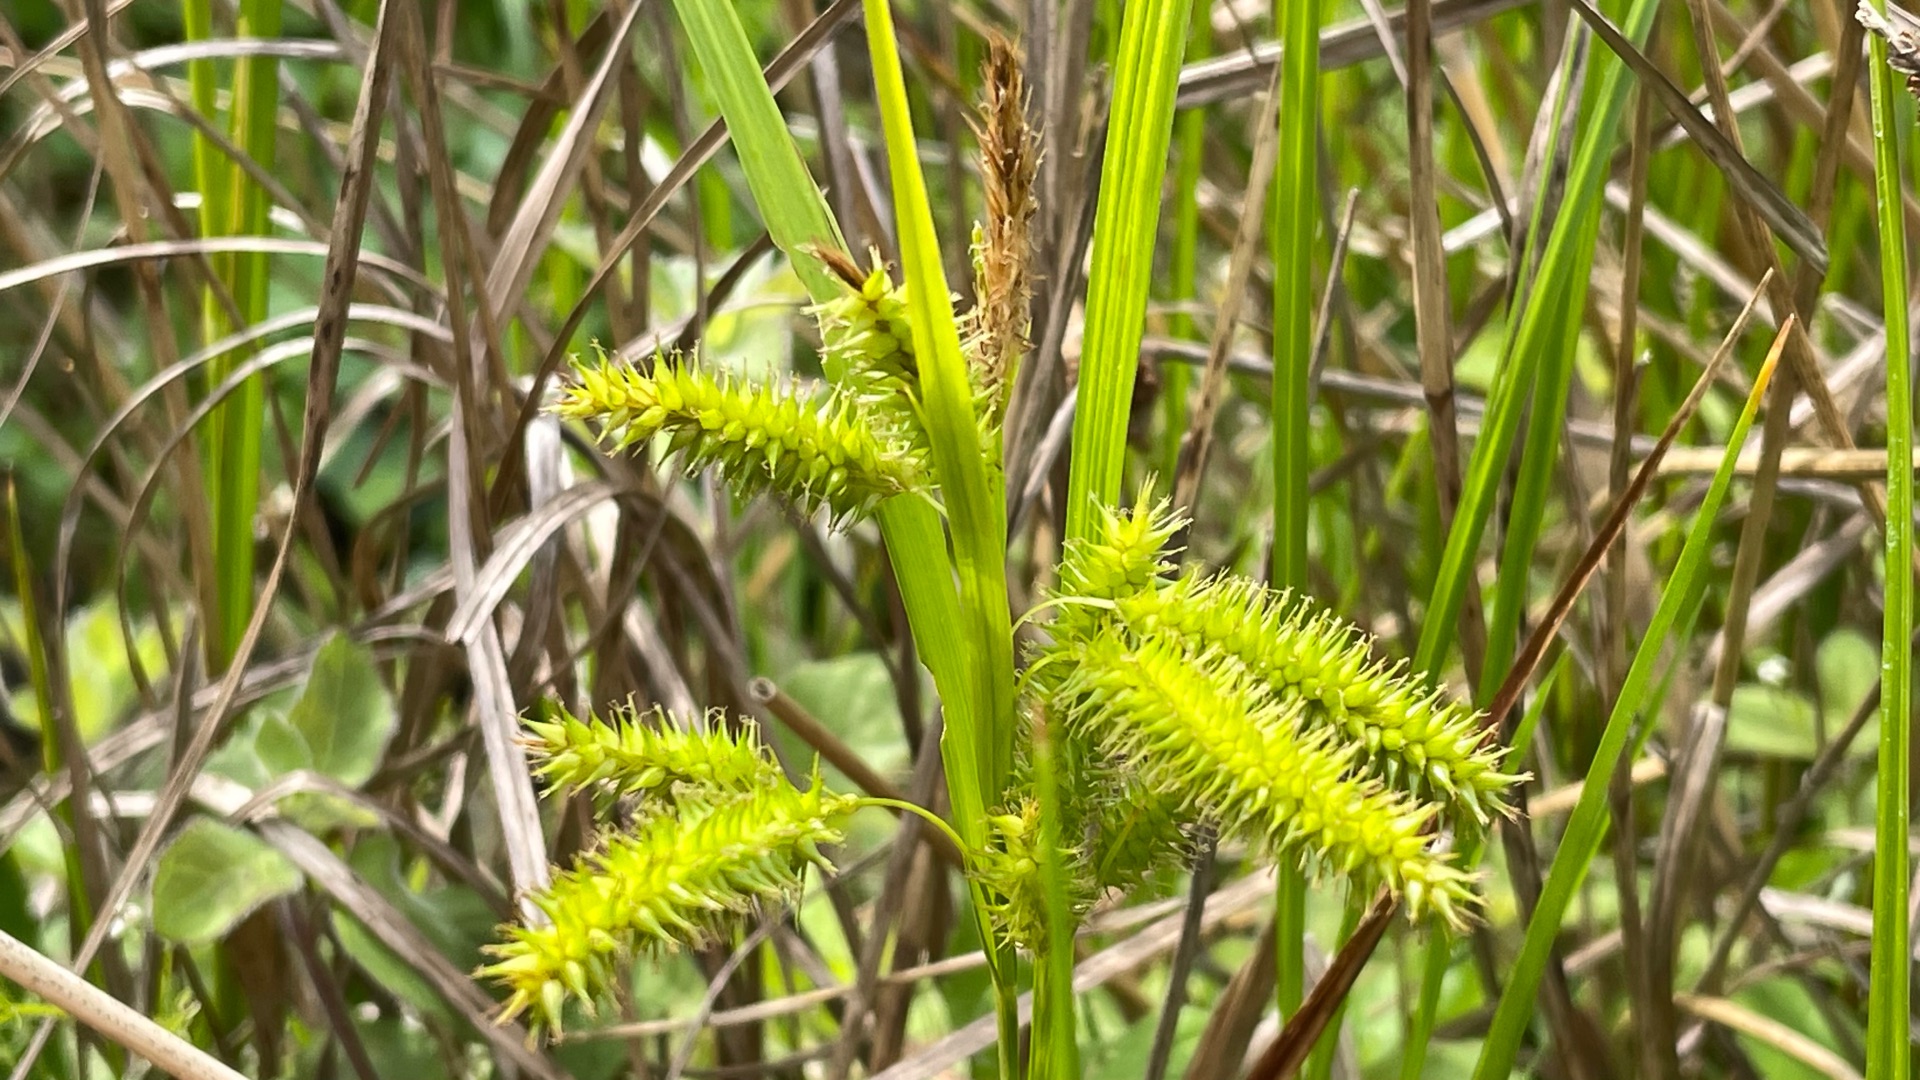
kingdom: Plantae
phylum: Tracheophyta
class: Liliopsida
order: Poales
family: Cyperaceae
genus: Carex
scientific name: Carex pseudocyperus
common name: Knippe-star
